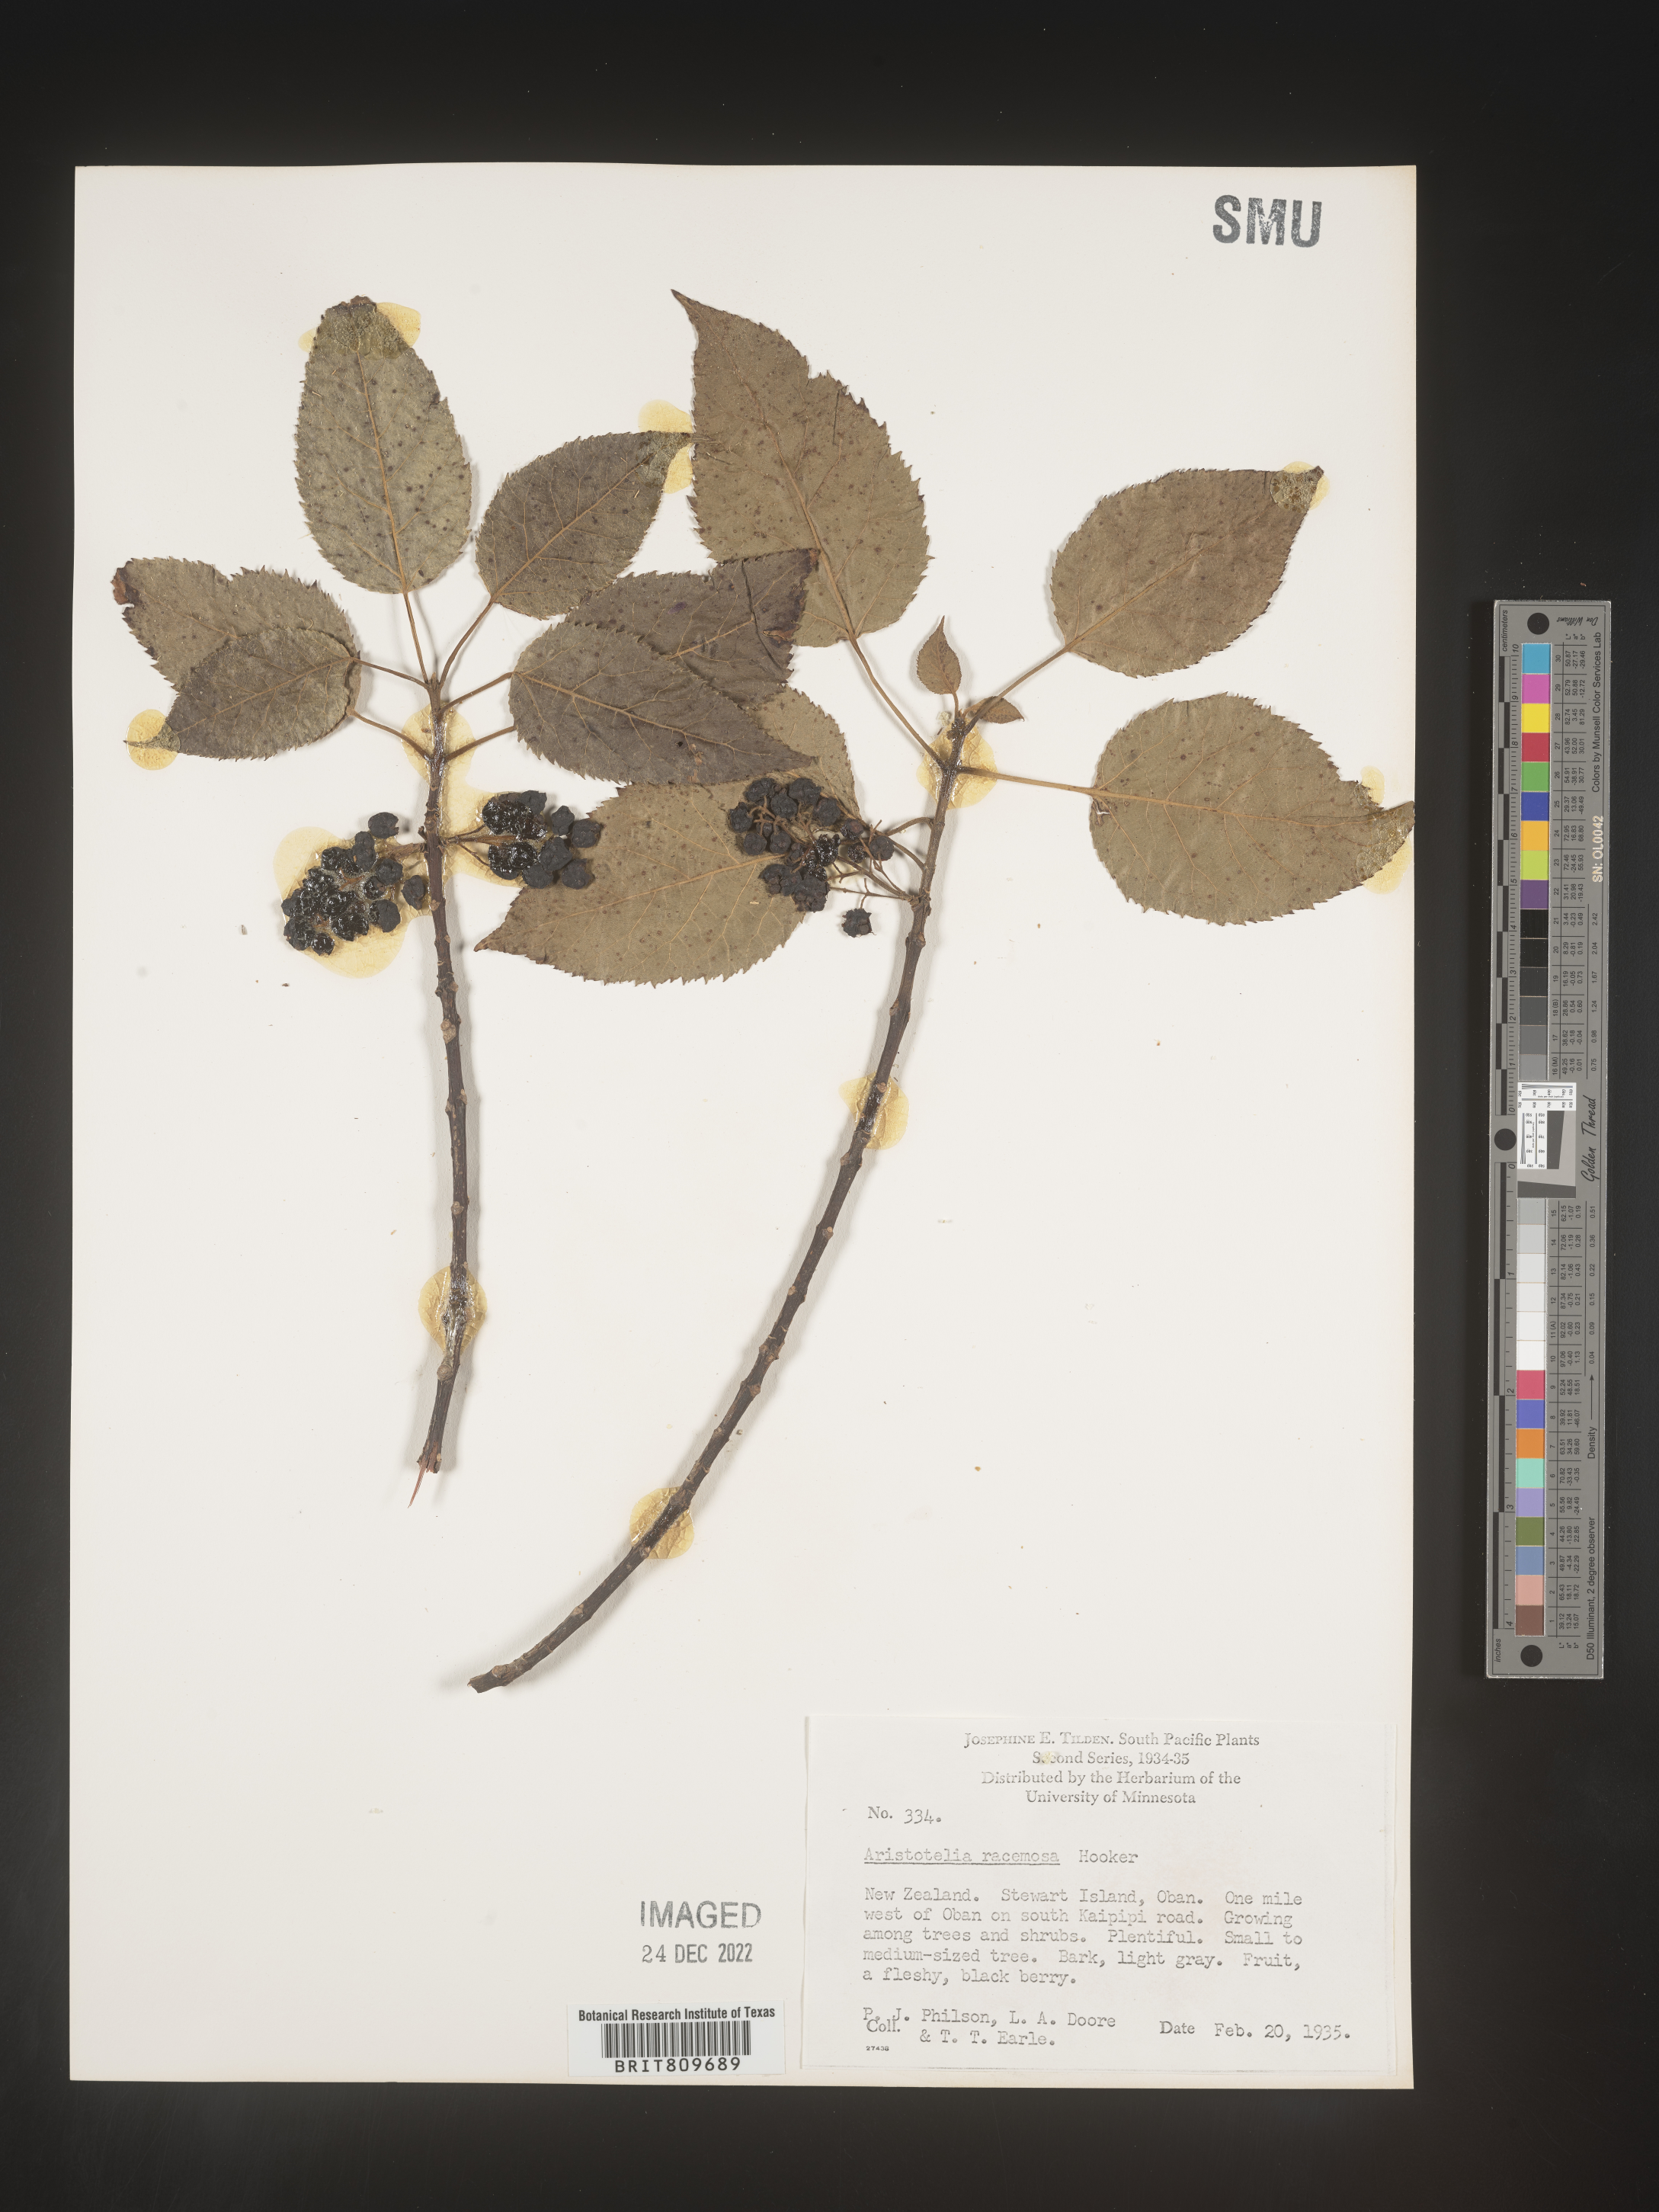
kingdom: Plantae
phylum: Tracheophyta
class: Magnoliopsida
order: Oxalidales
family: Elaeocarpaceae
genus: Aristotelia
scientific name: Aristotelia
